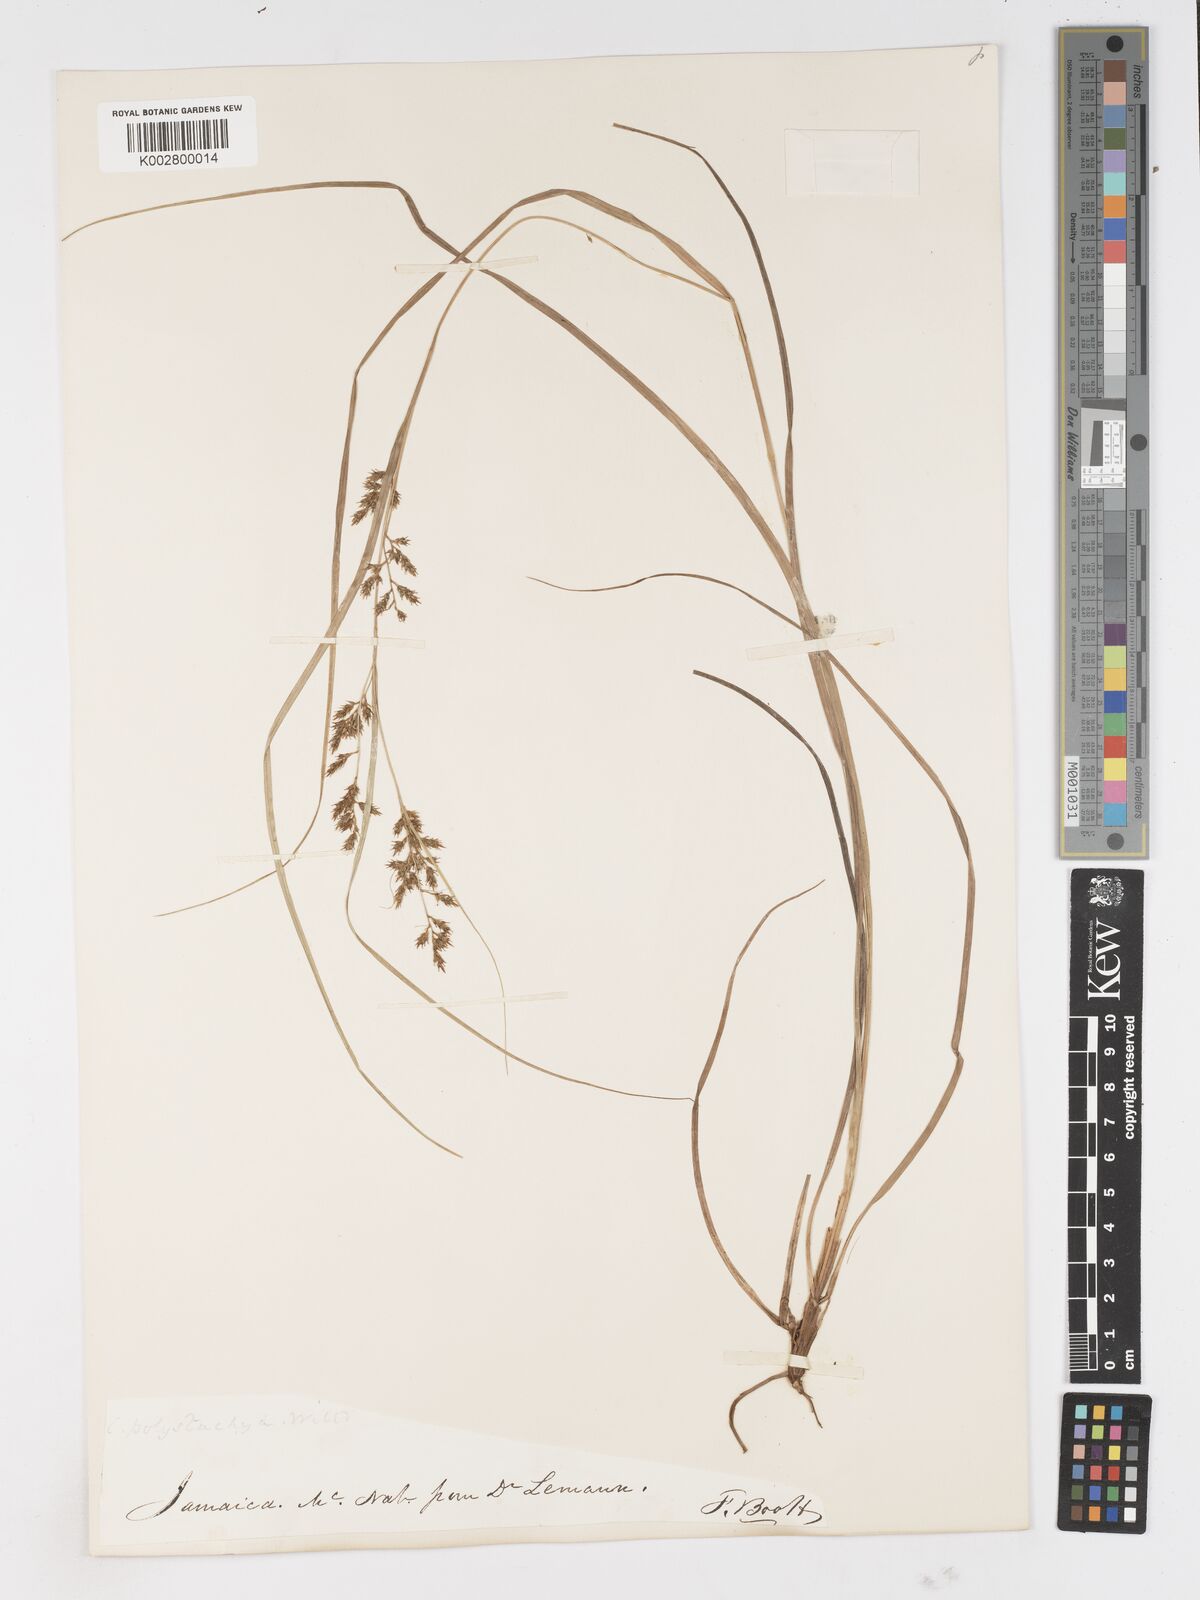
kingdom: Plantae
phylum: Tracheophyta
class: Liliopsida
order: Poales
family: Cyperaceae
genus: Carex
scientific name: Carex polystachya
